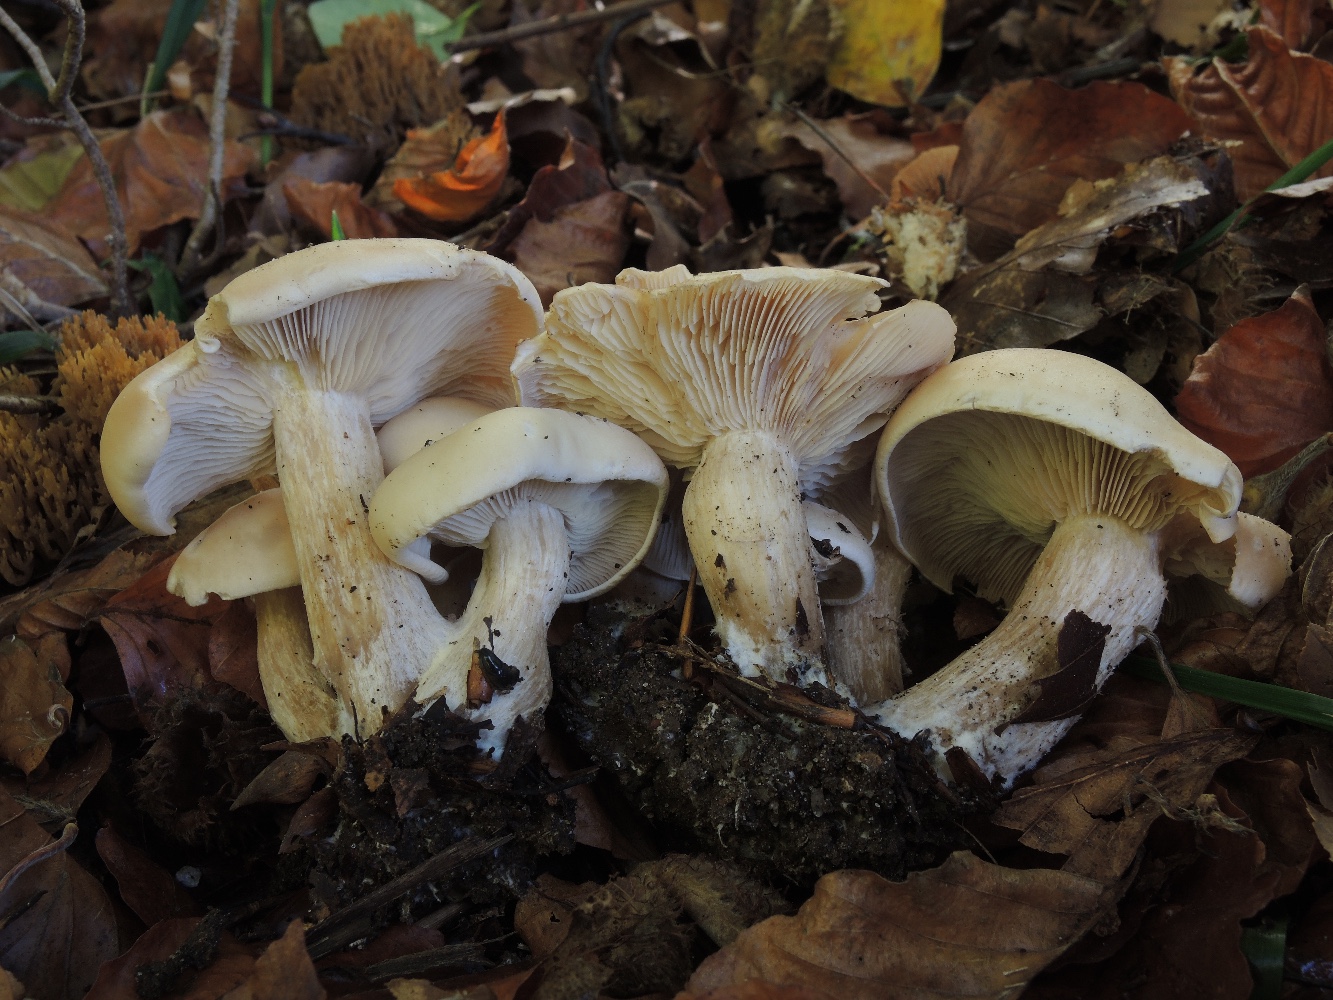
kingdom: Fungi
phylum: Basidiomycota
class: Agaricomycetes
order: Agaricales
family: Tricholomataceae
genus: Lepista
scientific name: Lepista irina
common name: violduftende hekseringshat
